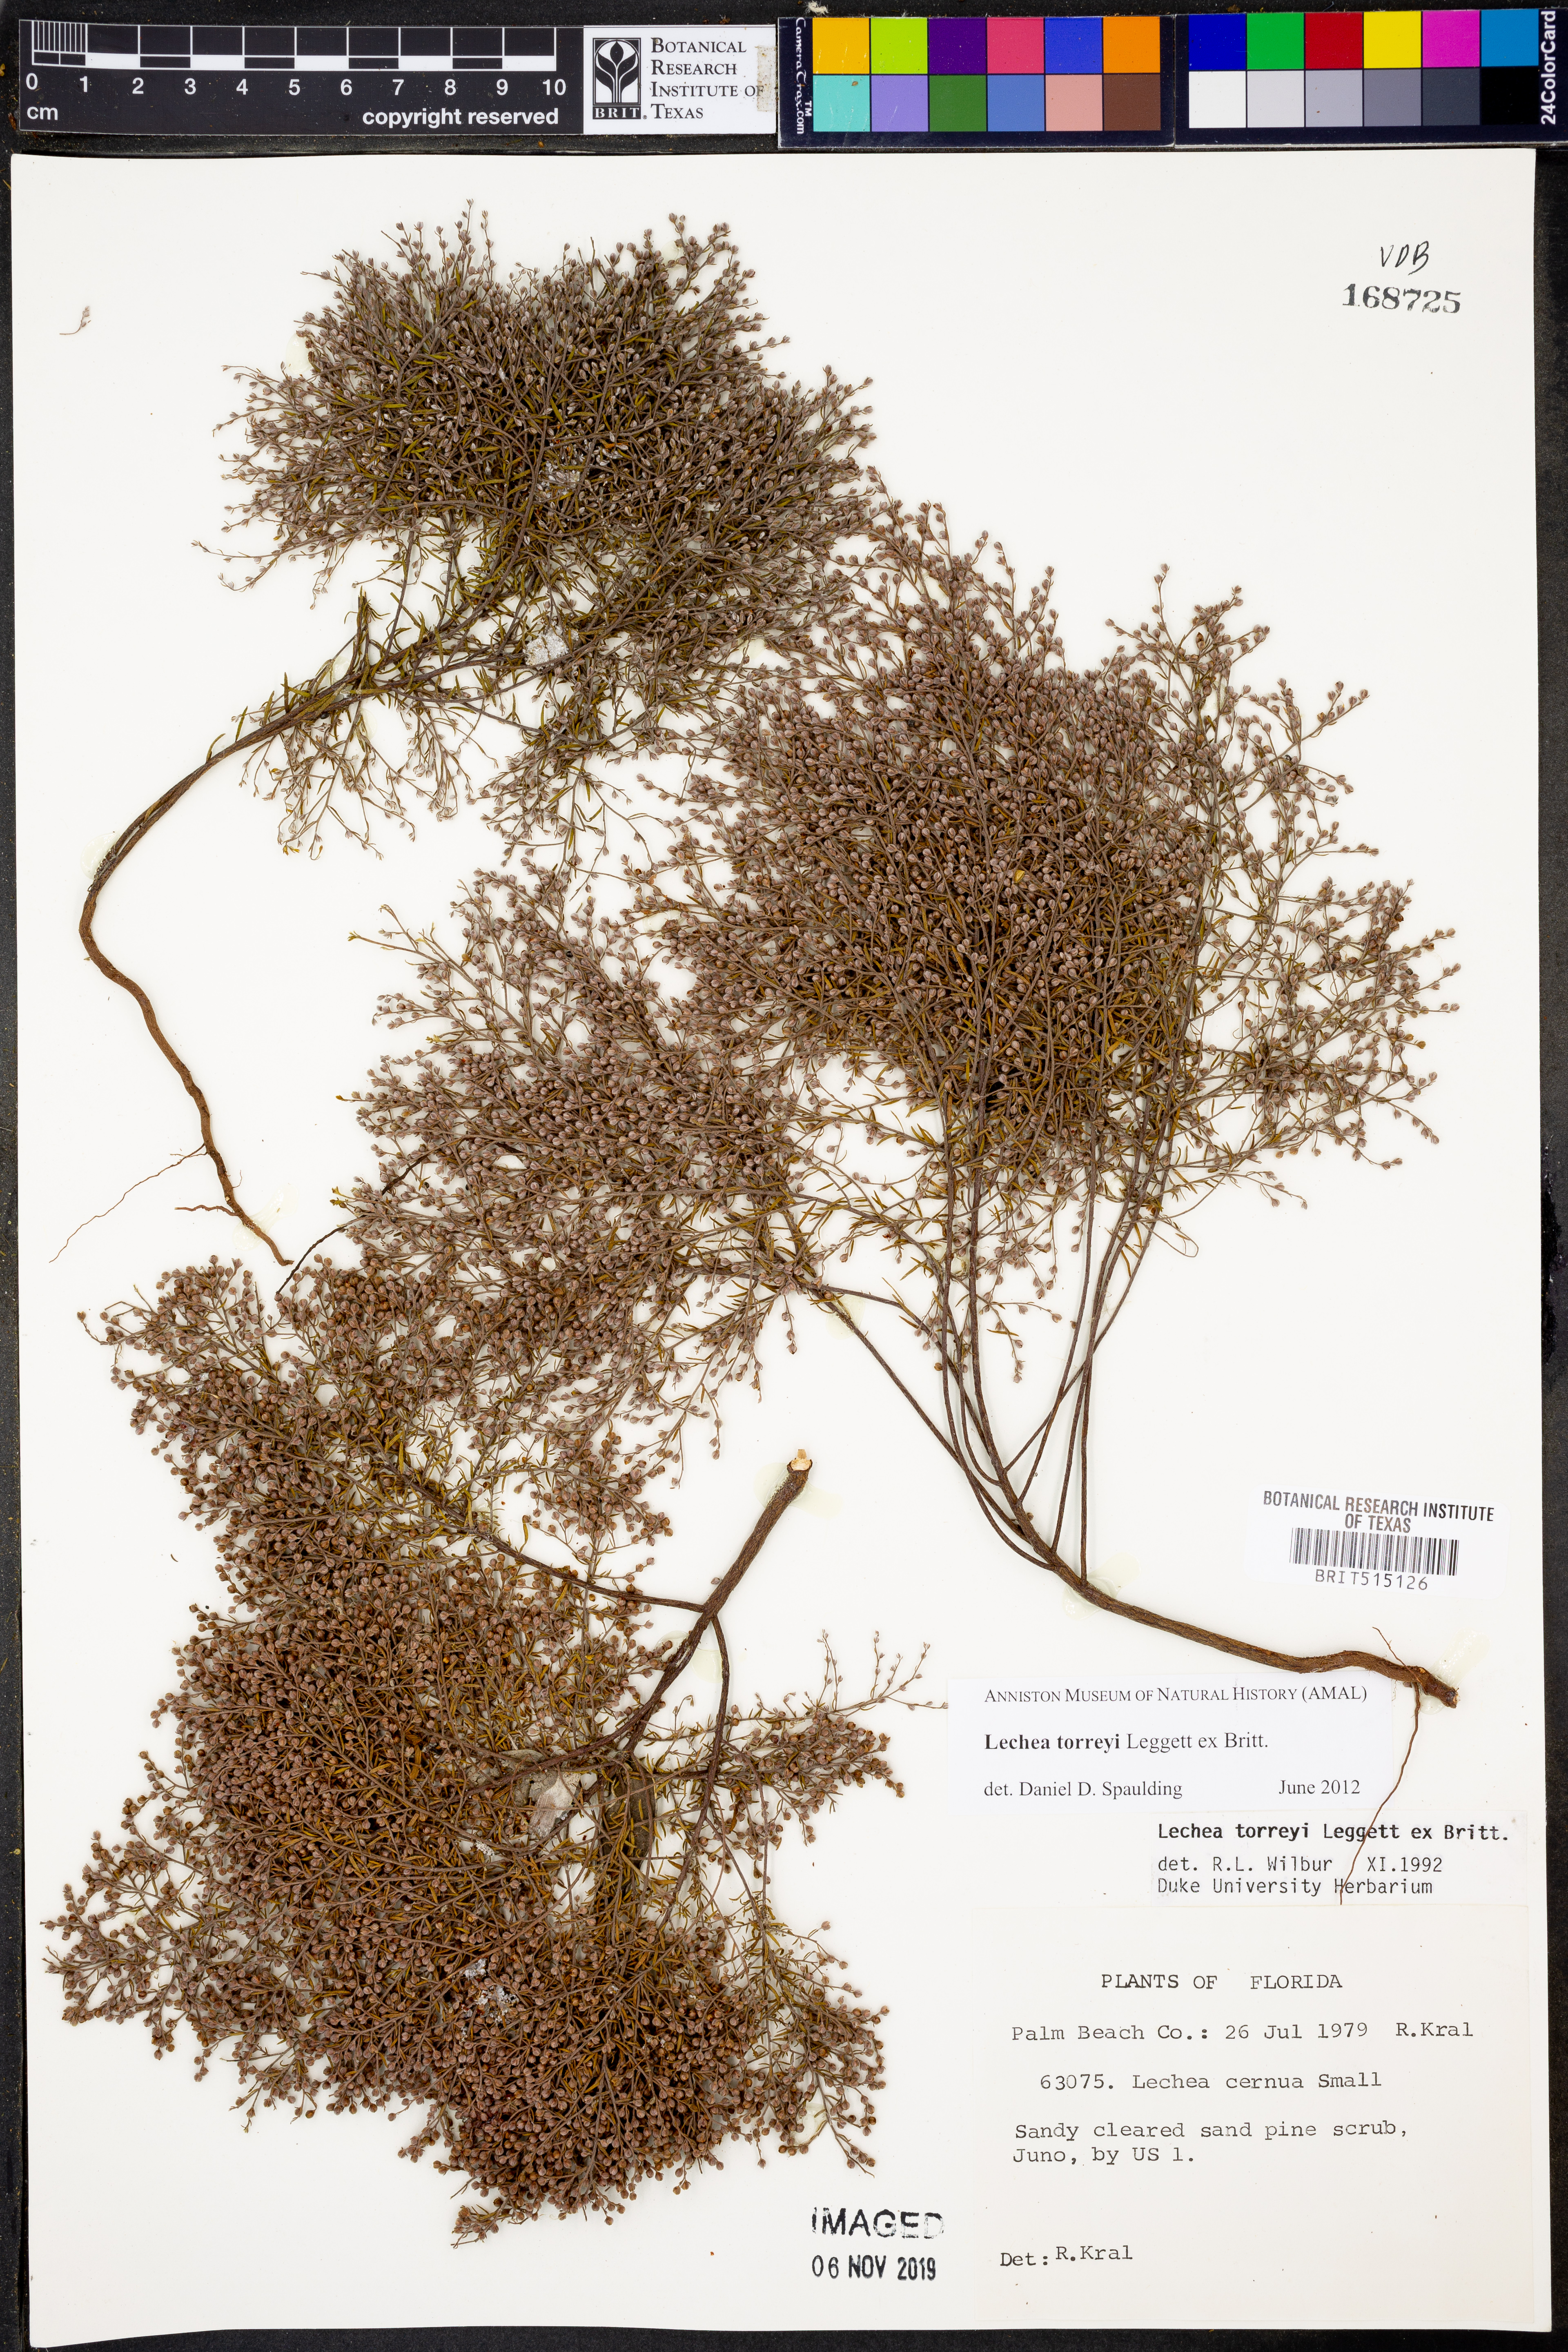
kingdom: Plantae
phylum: Tracheophyta
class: Magnoliopsida
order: Malvales
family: Cistaceae
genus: Lechea
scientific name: Lechea torreyi
